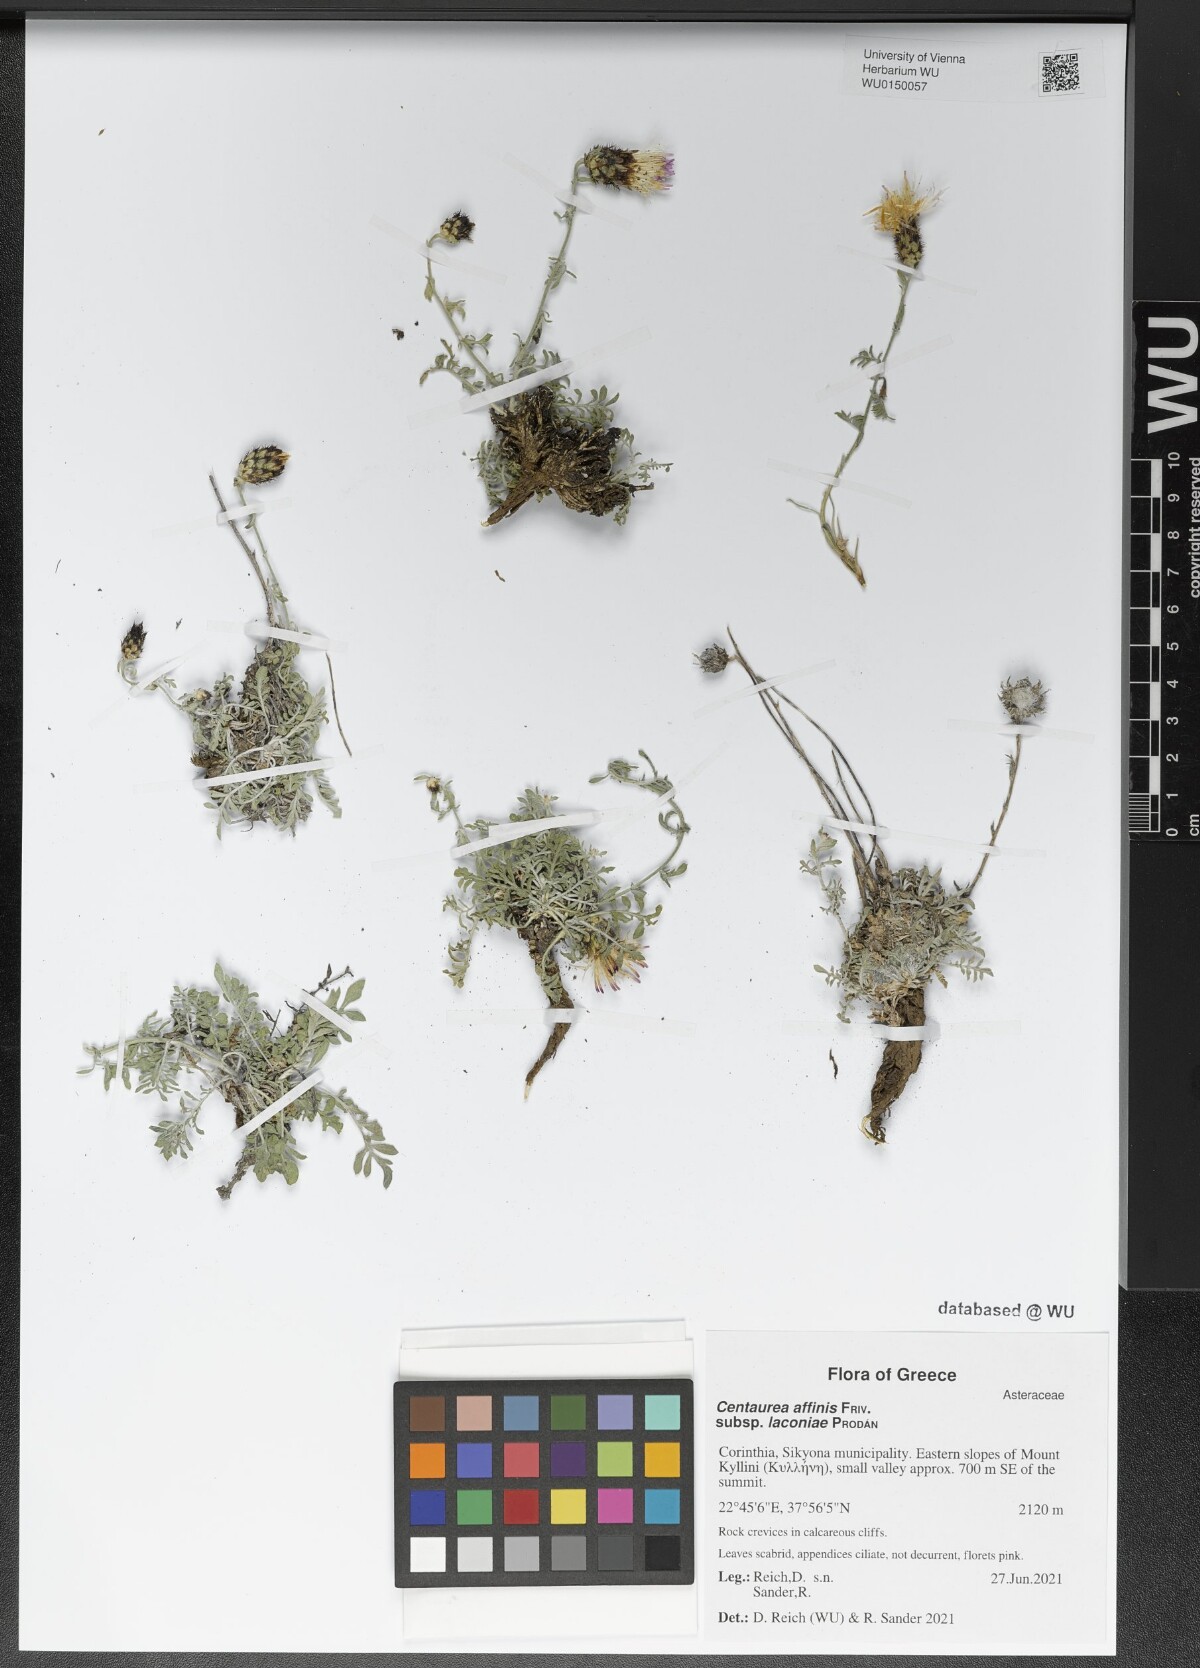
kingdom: Plantae
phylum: Tracheophyta
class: Magnoliopsida
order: Asterales
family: Asteraceae
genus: Centaurea
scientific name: Centaurea affinis
